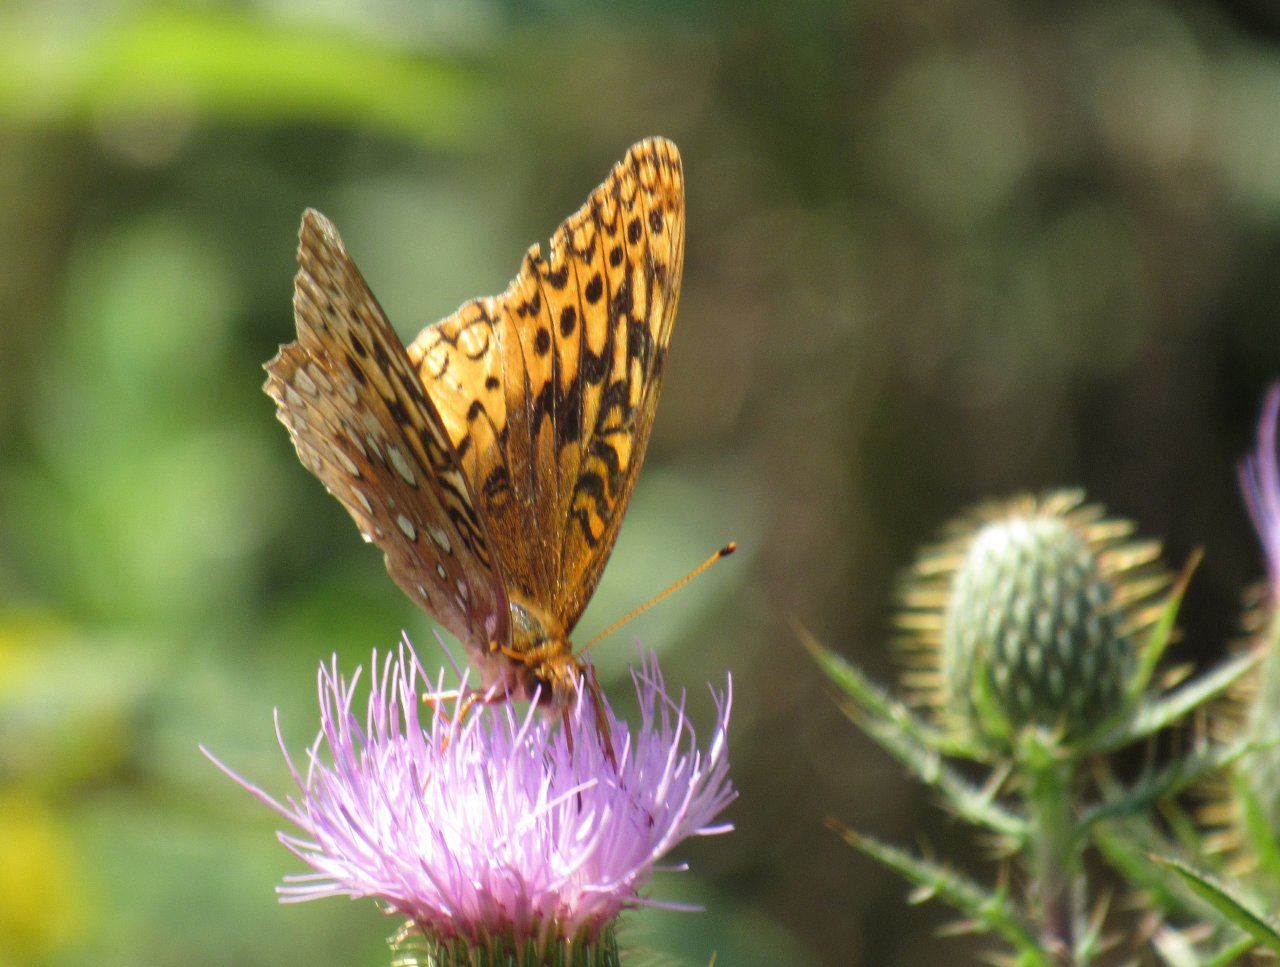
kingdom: Animalia
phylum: Arthropoda
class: Insecta
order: Lepidoptera
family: Nymphalidae
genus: Speyeria
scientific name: Speyeria cybele
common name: Great Spangled Fritillary
